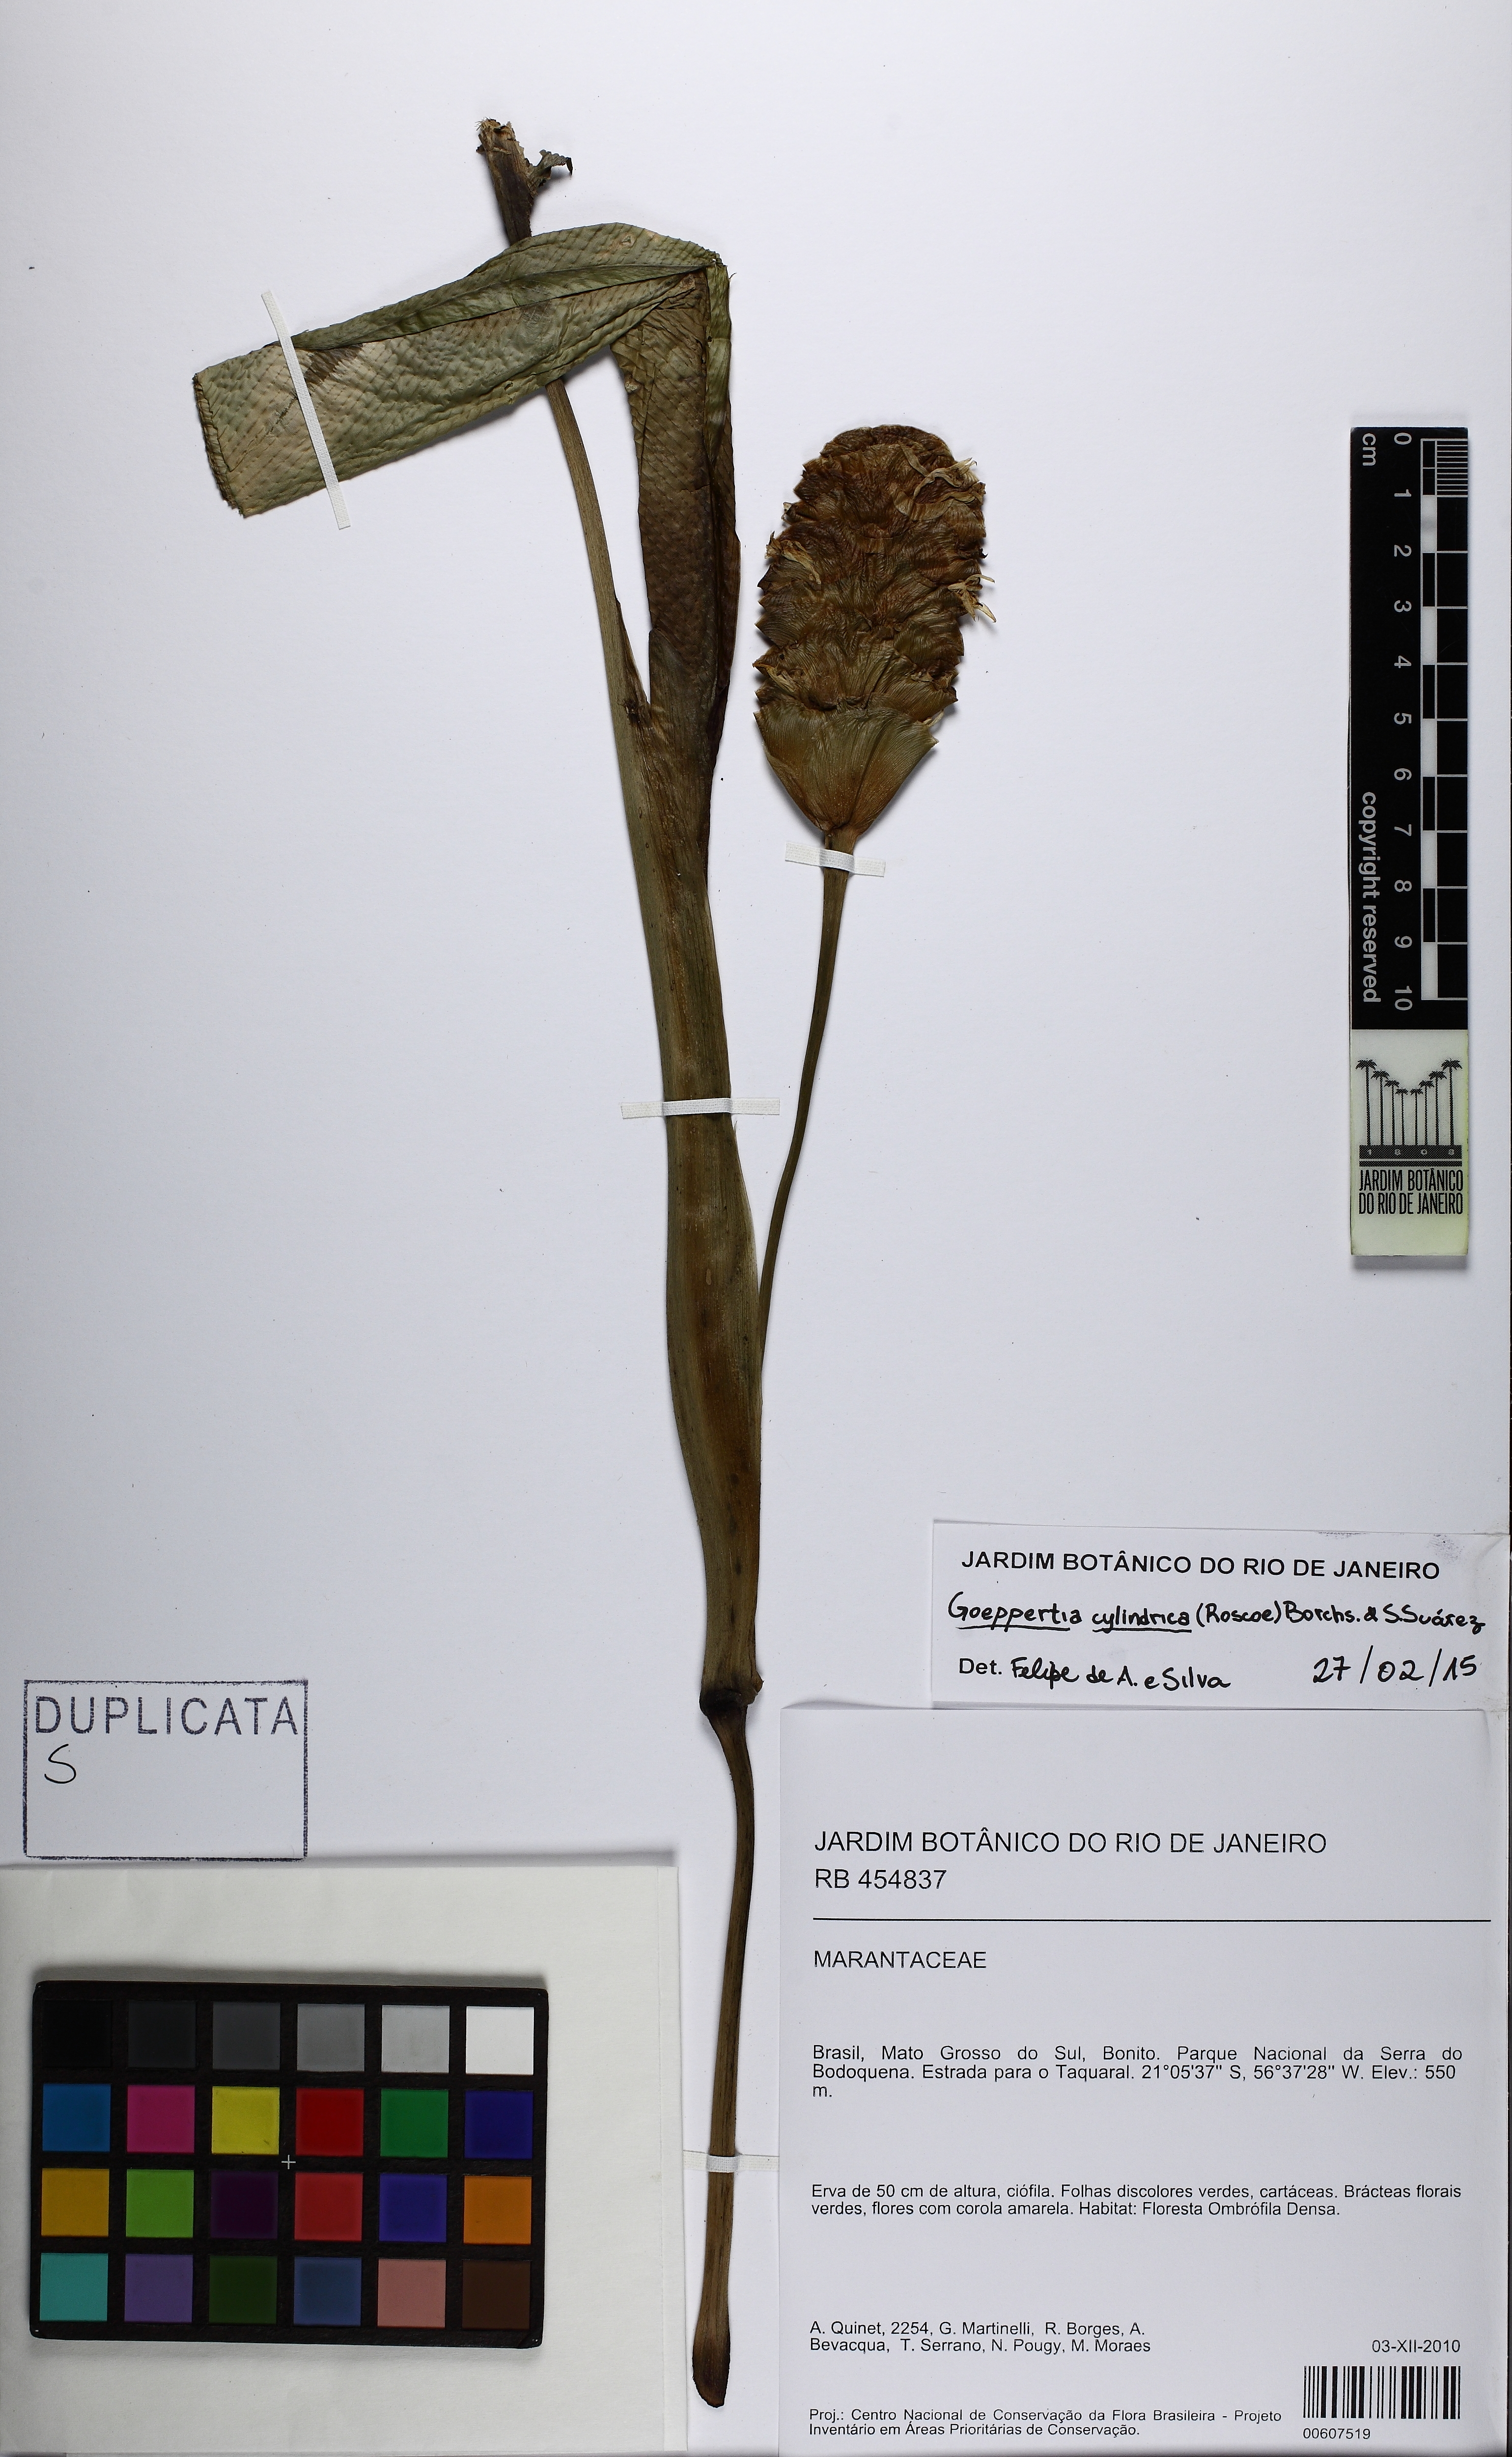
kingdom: Plantae
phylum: Tracheophyta
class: Liliopsida
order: Zingiberales
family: Marantaceae
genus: Goeppertia
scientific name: Goeppertia cylindrica
